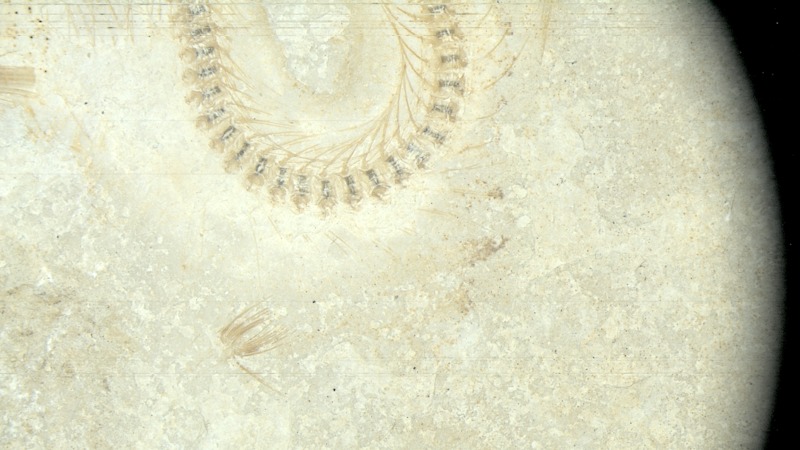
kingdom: Animalia
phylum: Chordata
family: Allothrissopidae
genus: Allothrissops
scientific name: Allothrissops
